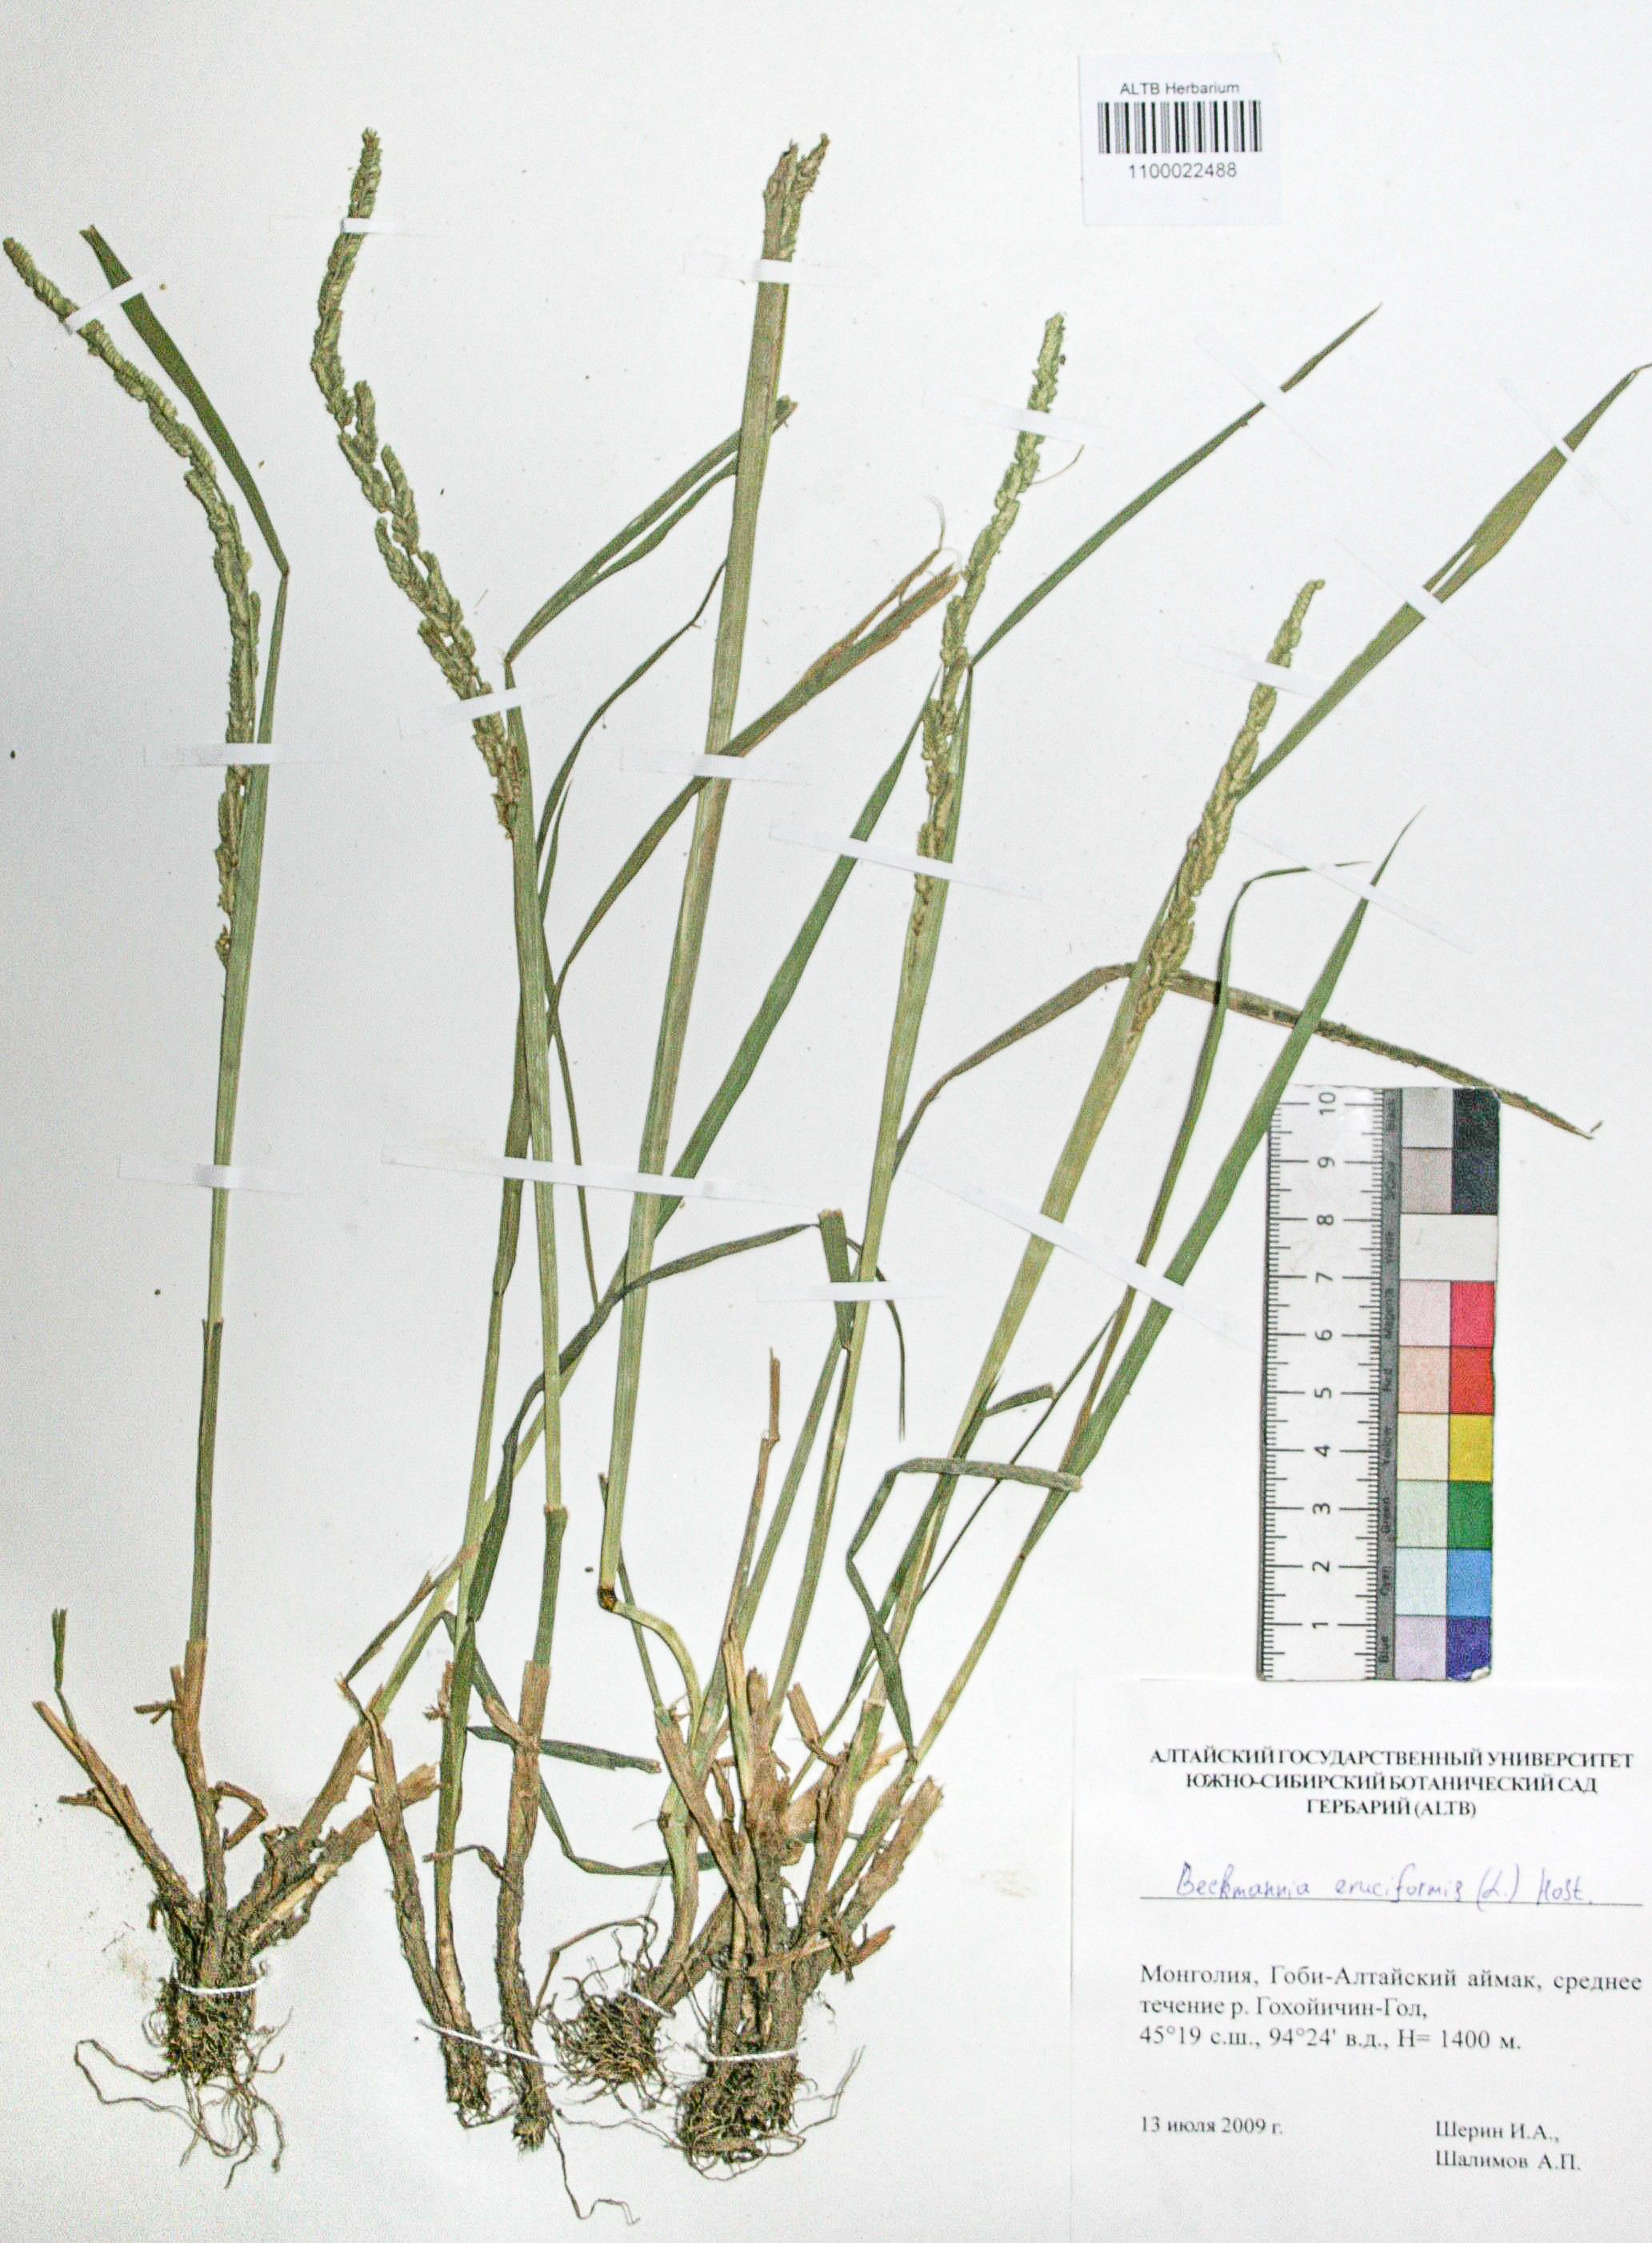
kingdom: Plantae
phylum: Tracheophyta
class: Liliopsida
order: Poales
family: Poaceae
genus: Beckmannia
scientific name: Beckmannia eruciformis
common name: European slough-grass
